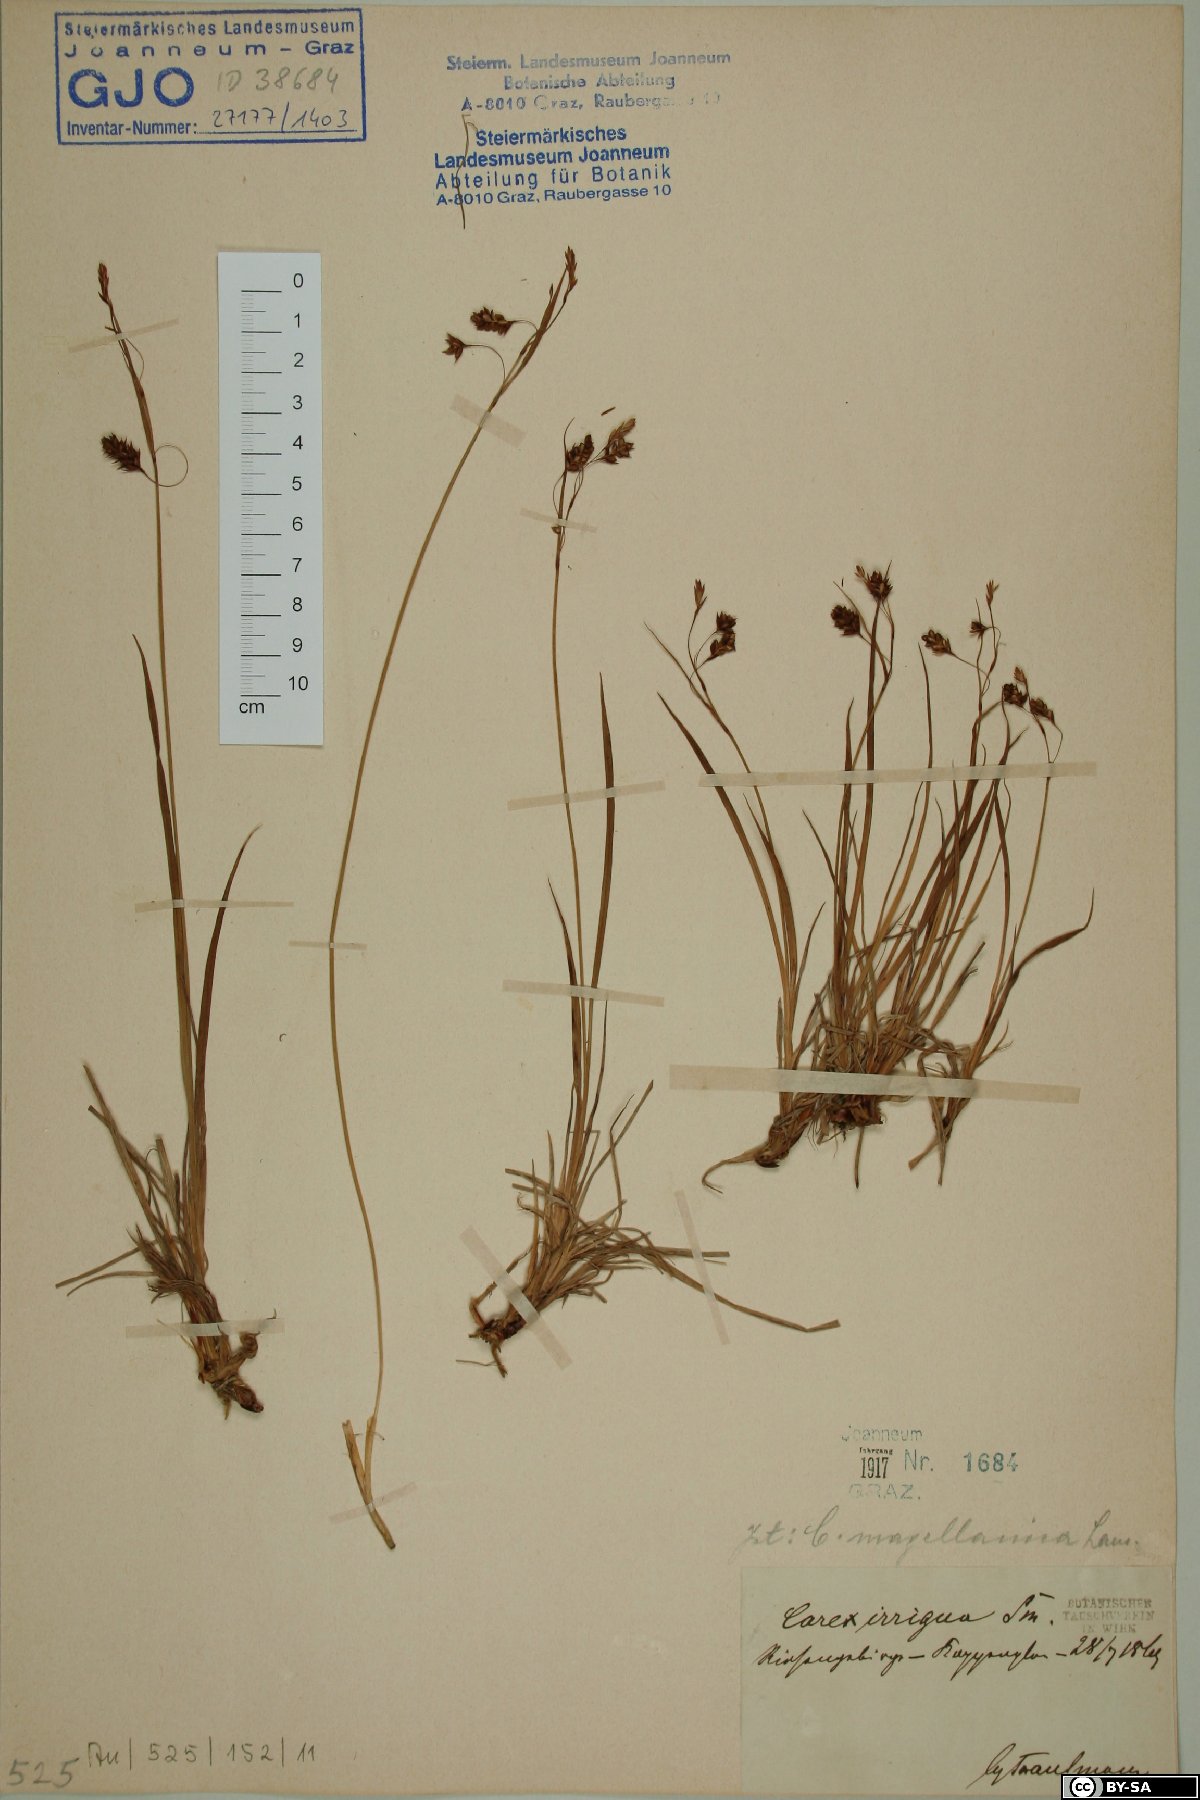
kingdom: Plantae
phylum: Tracheophyta
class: Liliopsida
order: Poales
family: Cyperaceae
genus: Carex
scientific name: Carex magellanica
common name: Bog sedge
